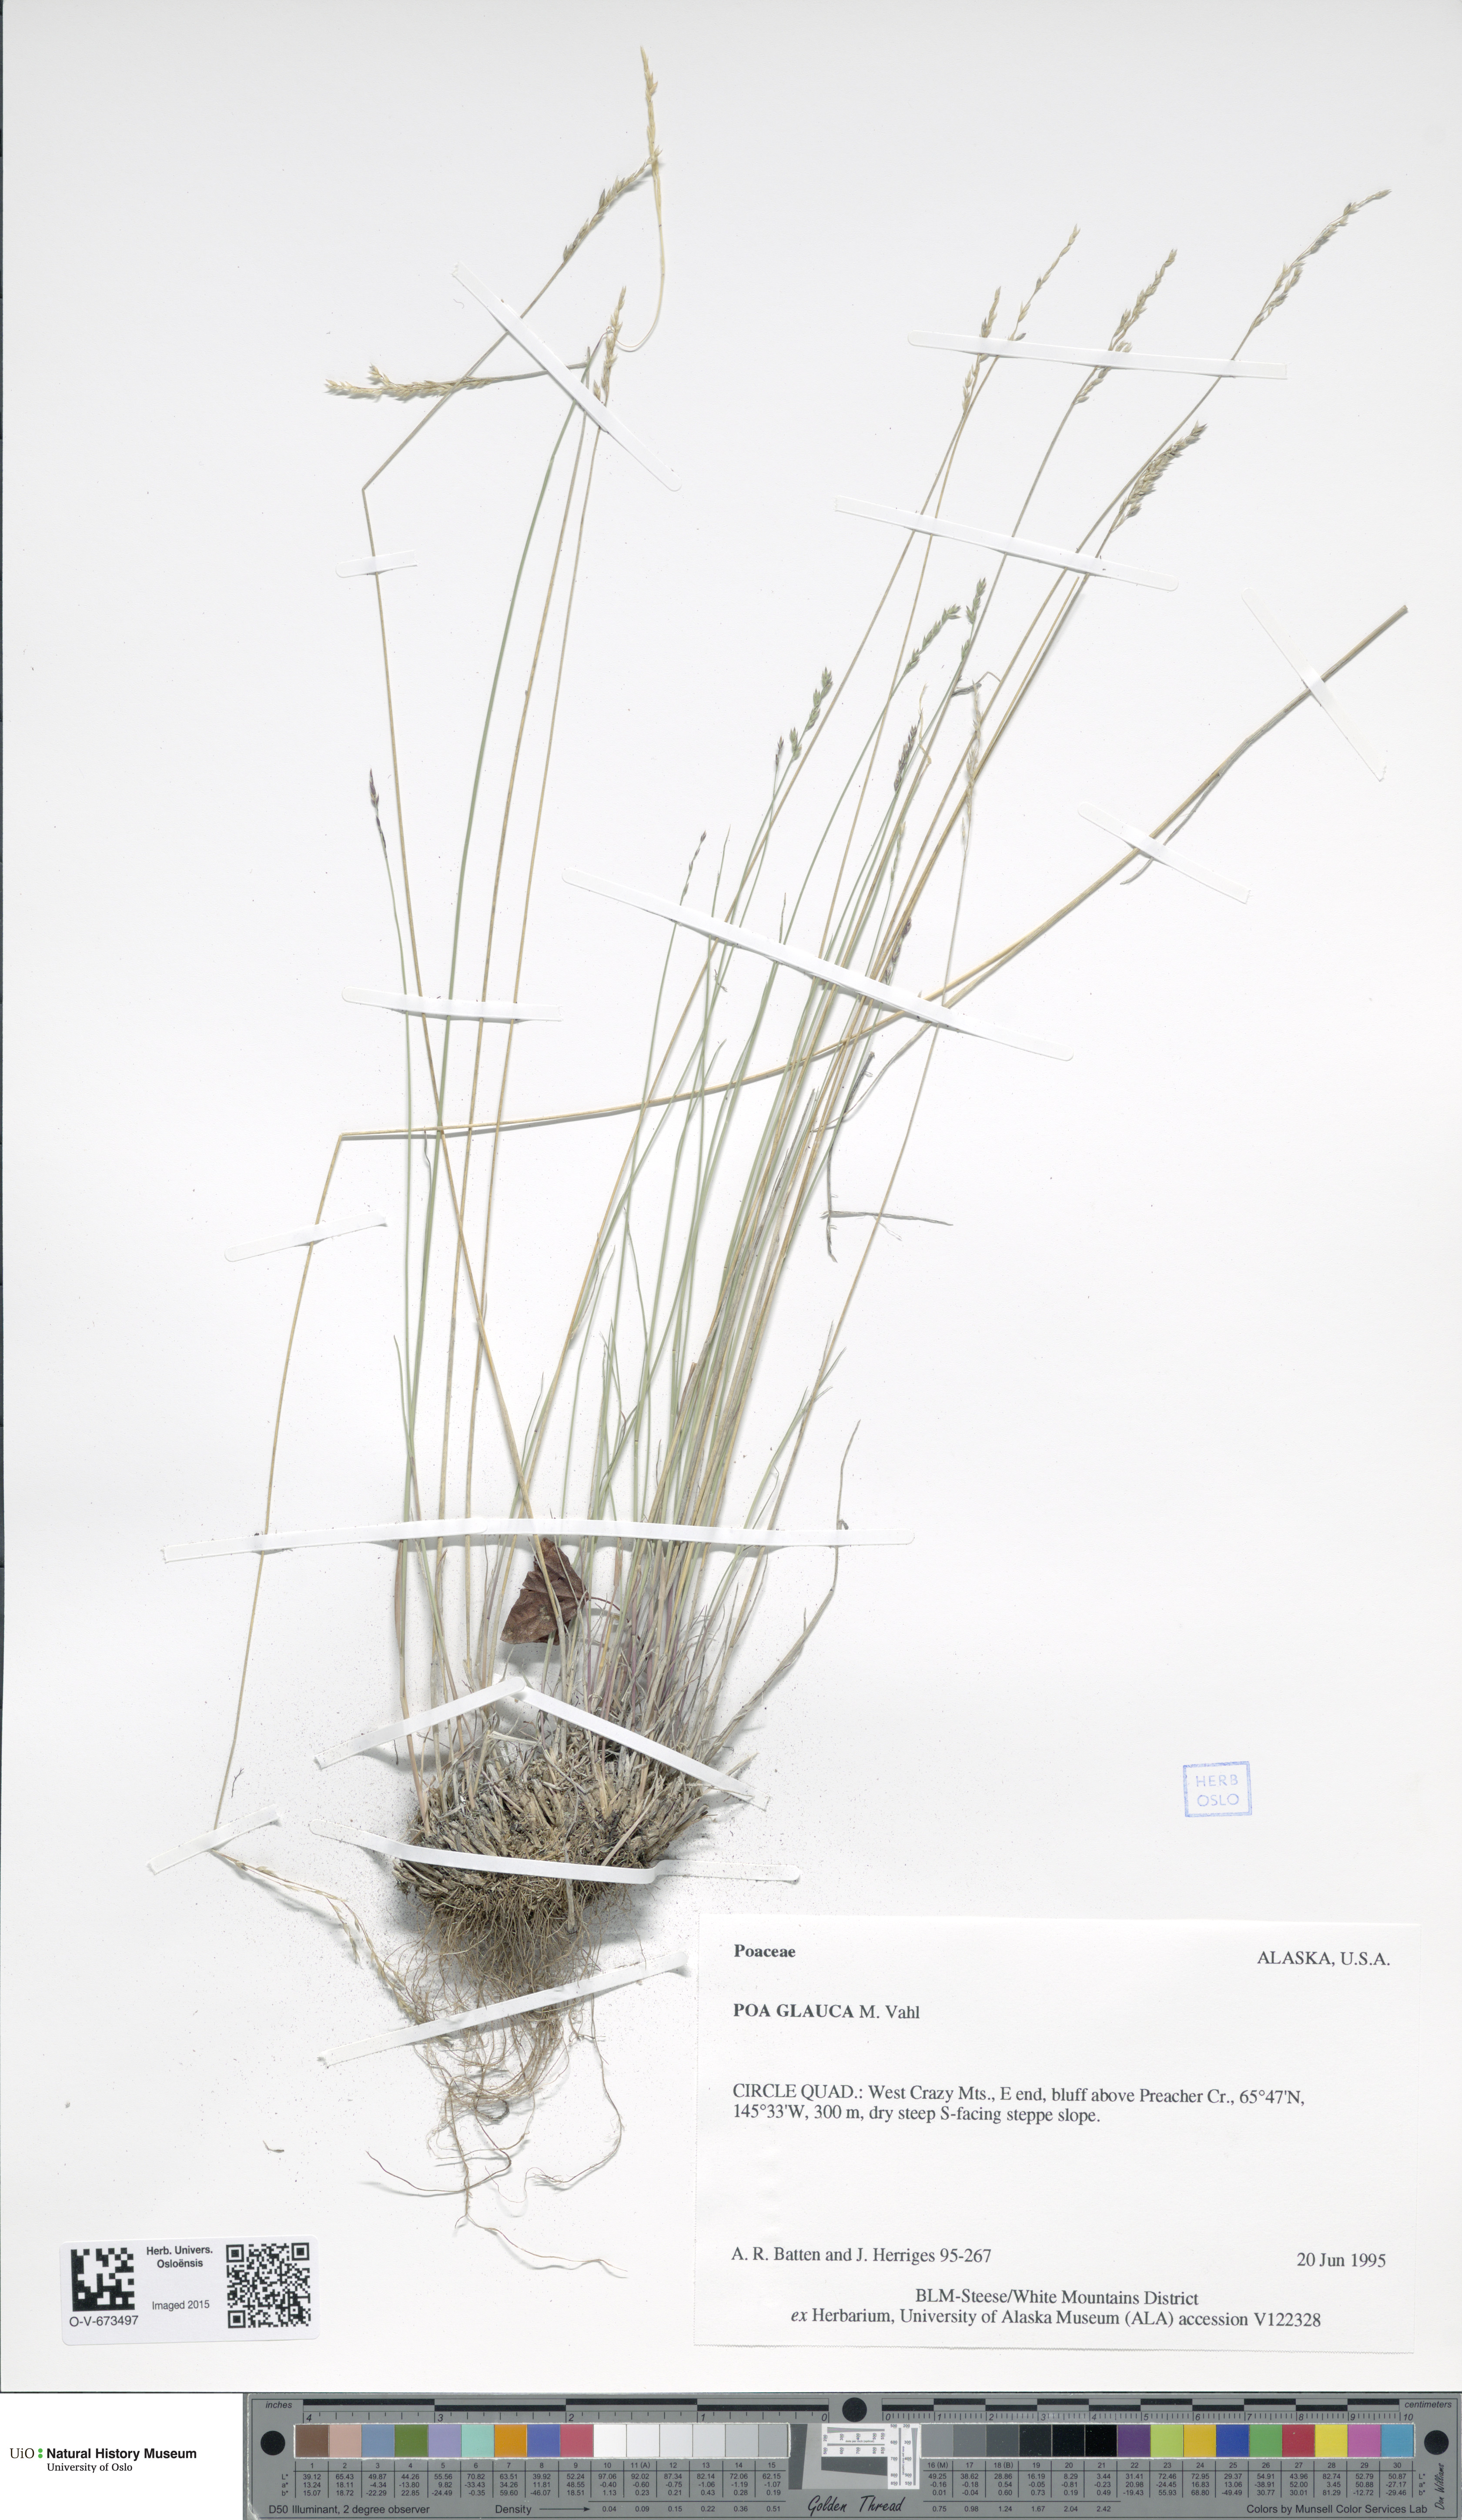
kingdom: Plantae
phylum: Tracheophyta
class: Liliopsida
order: Poales
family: Poaceae
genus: Poa
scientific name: Poa glauca
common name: Glaucous bluegrass
